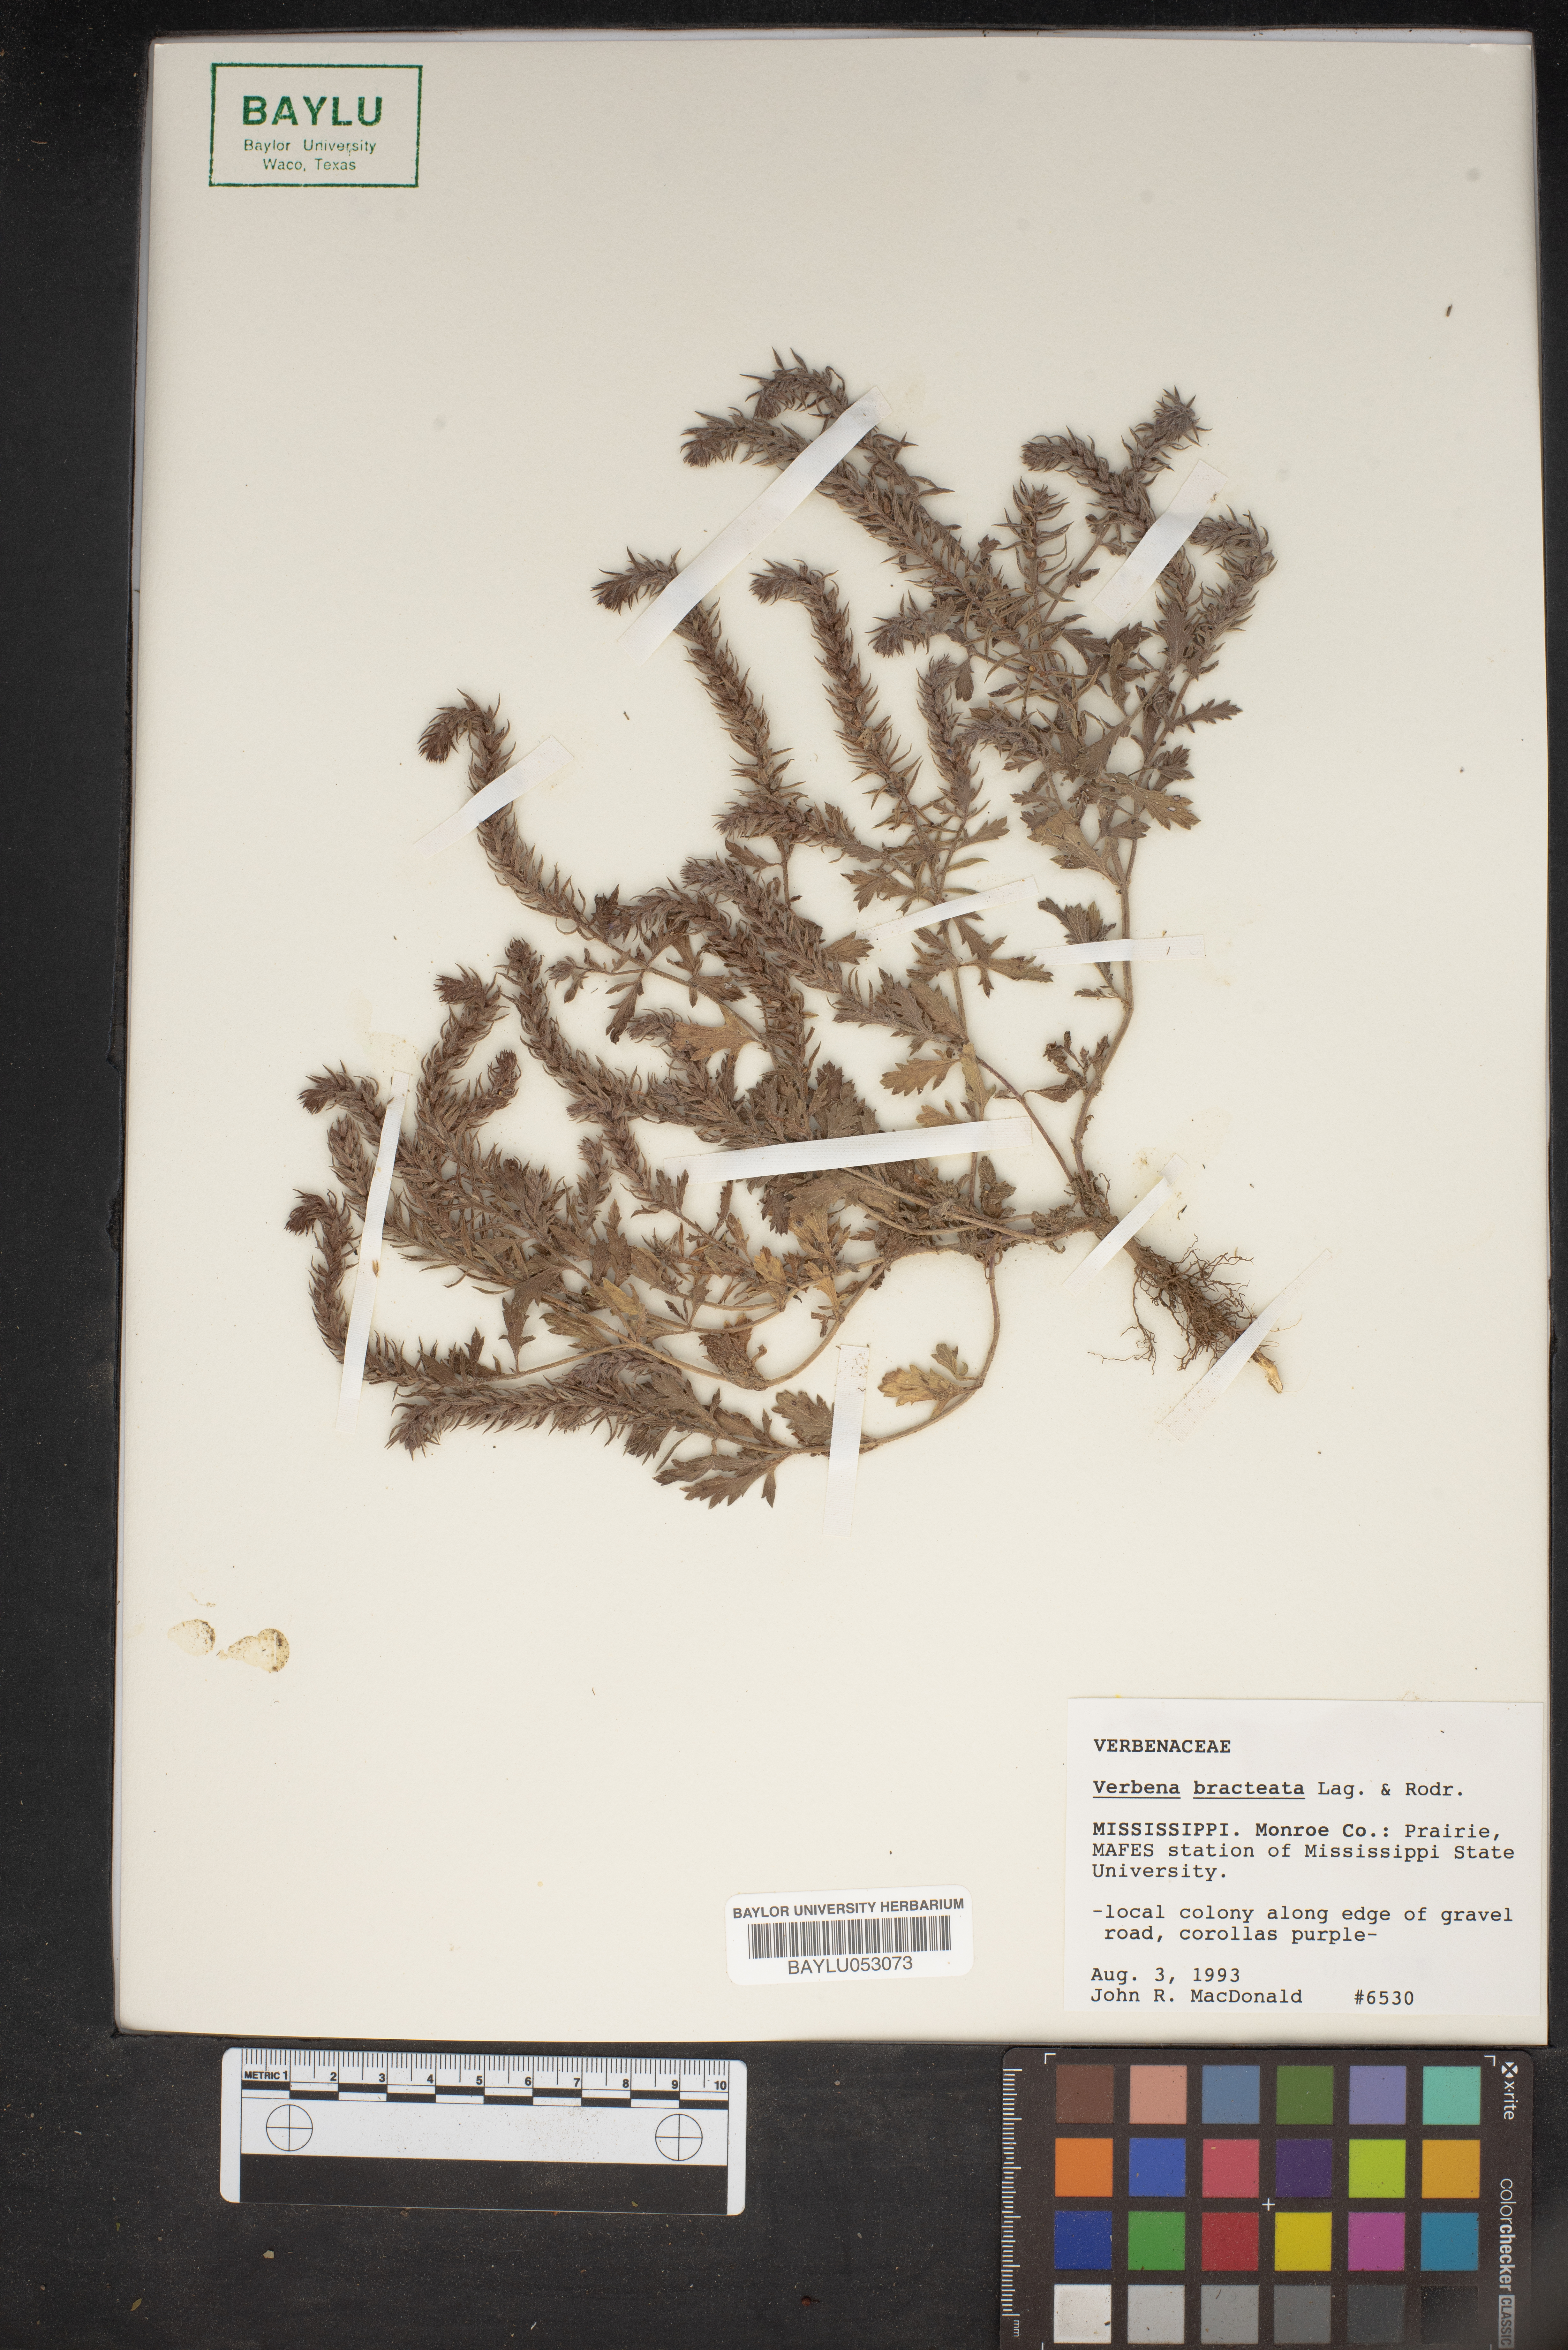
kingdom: Plantae
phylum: Tracheophyta
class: Magnoliopsida
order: Lamiales
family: Verbenaceae
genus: Verbena
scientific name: Verbena bracteata
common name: Bracted vervain
